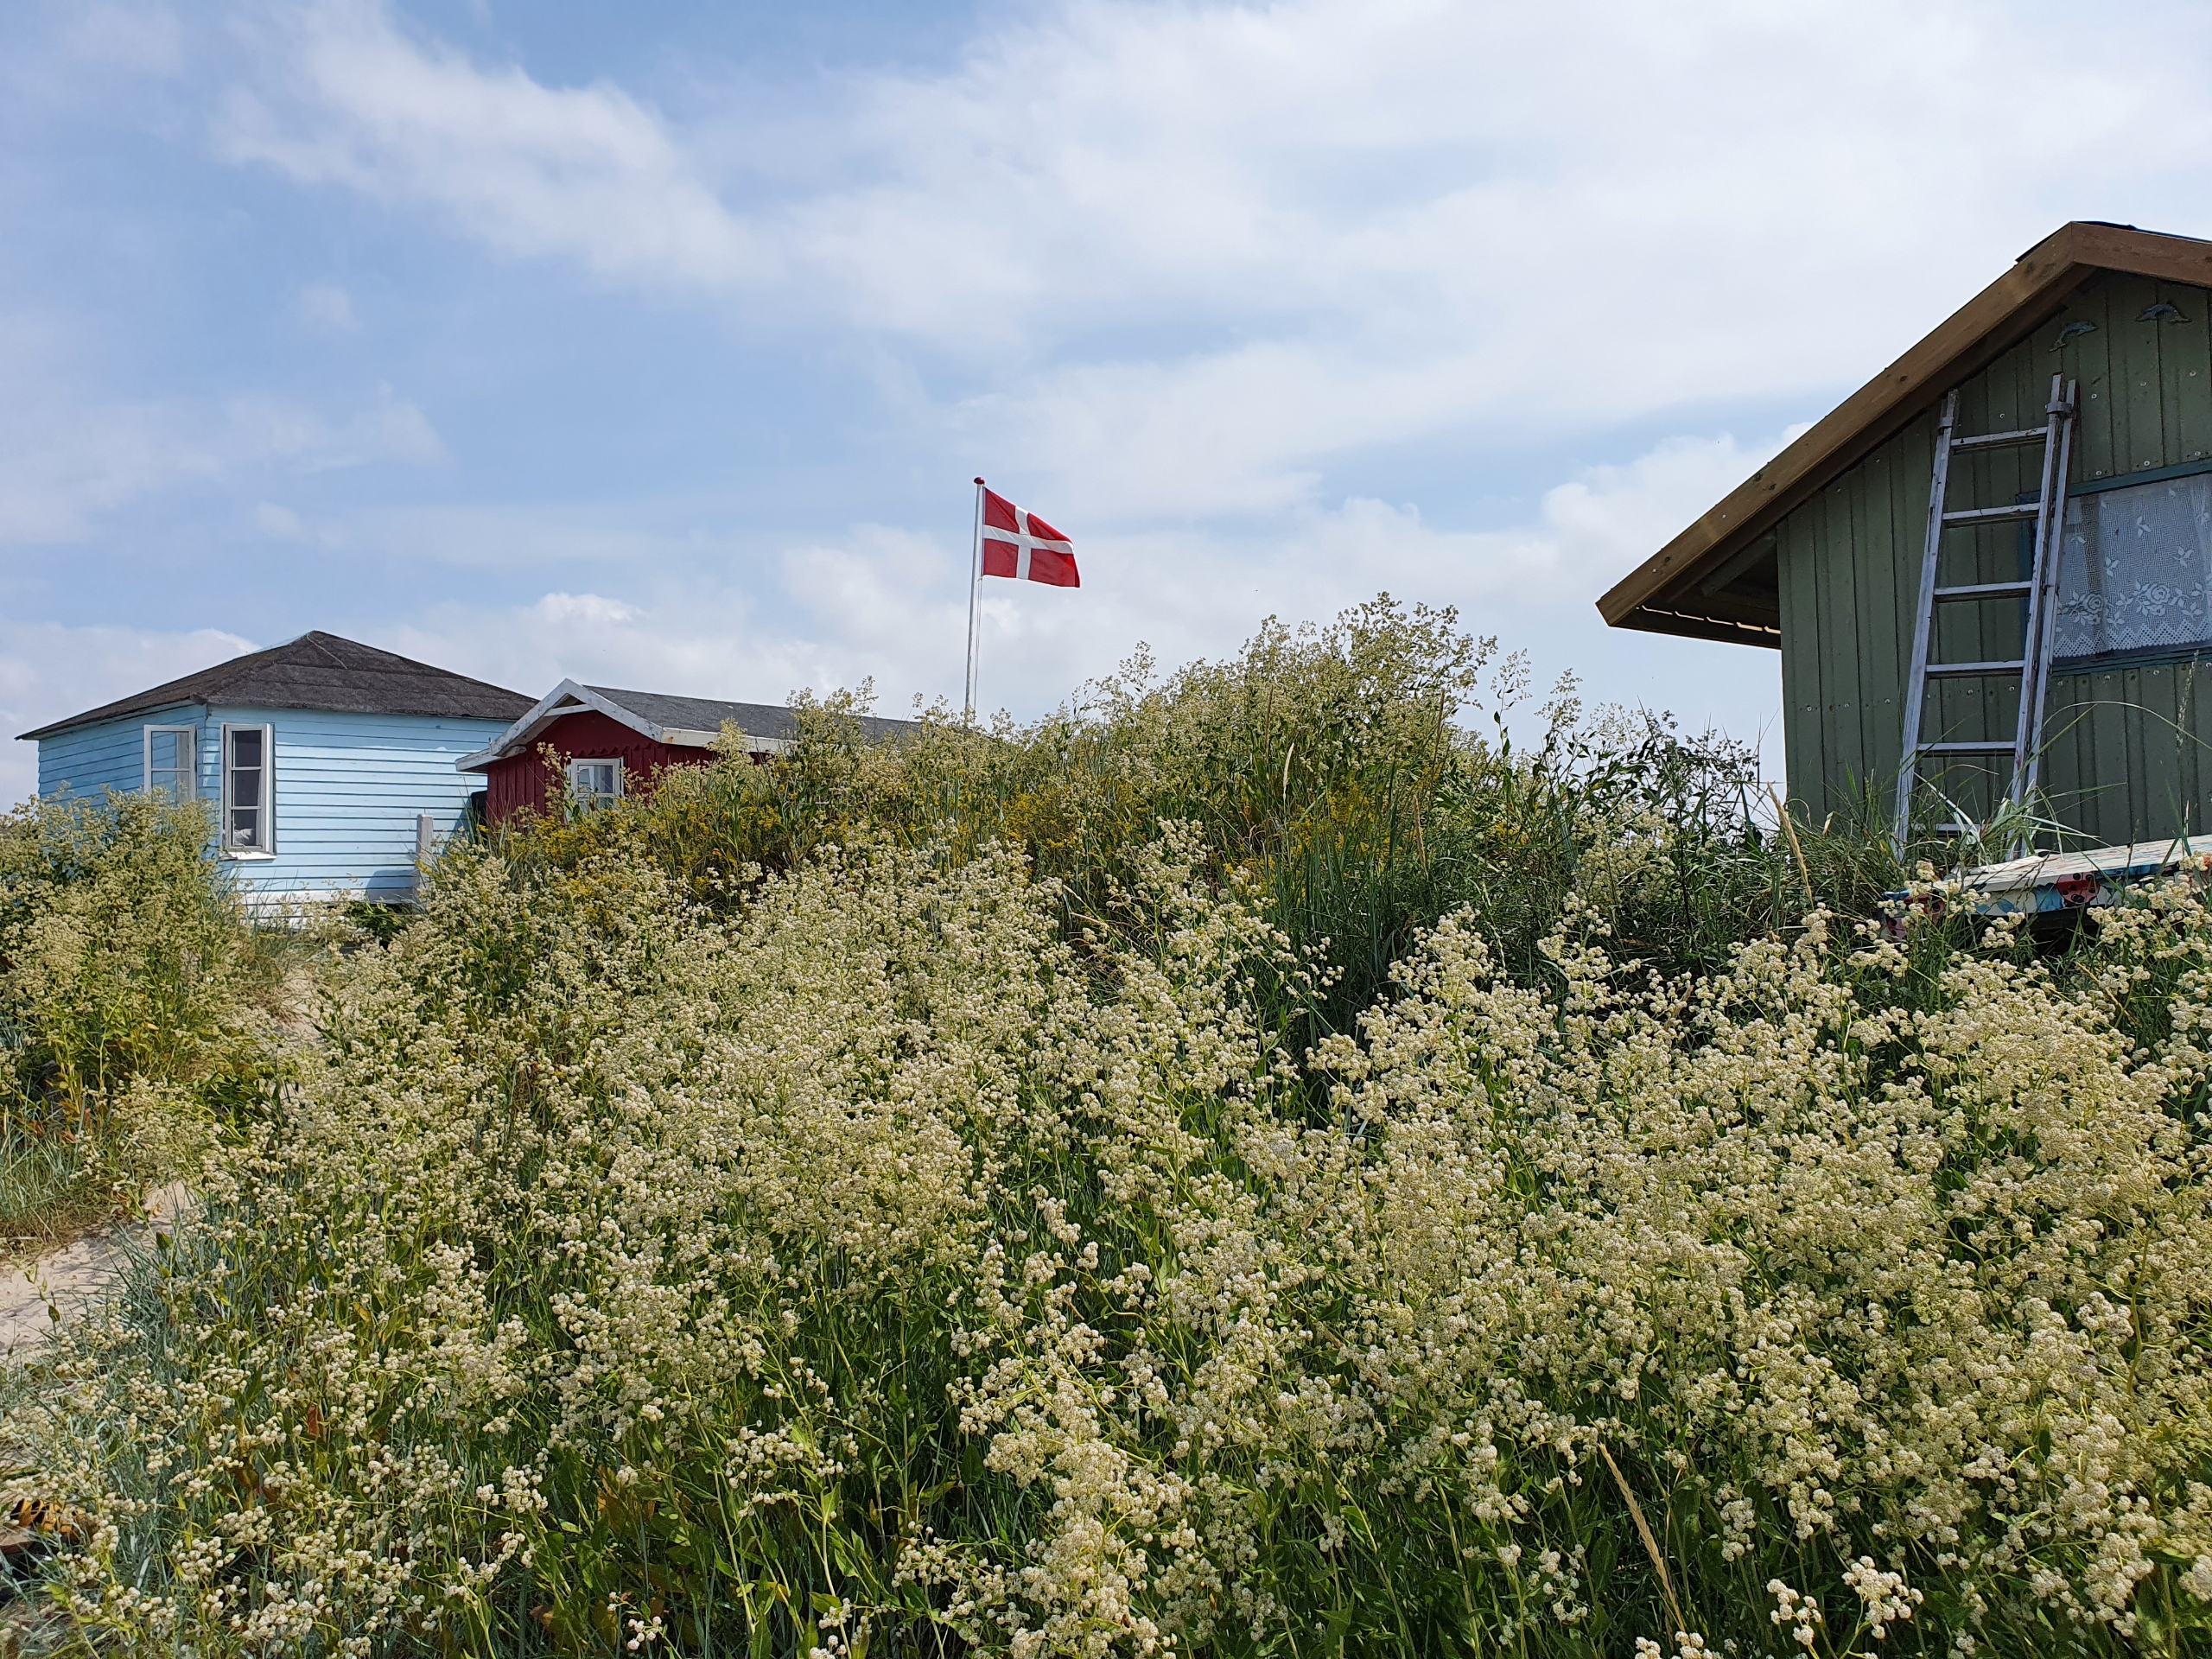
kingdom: Plantae
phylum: Tracheophyta
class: Magnoliopsida
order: Brassicales
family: Brassicaceae
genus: Lepidium
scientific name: Lepidium latifolium
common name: Strand-karse
